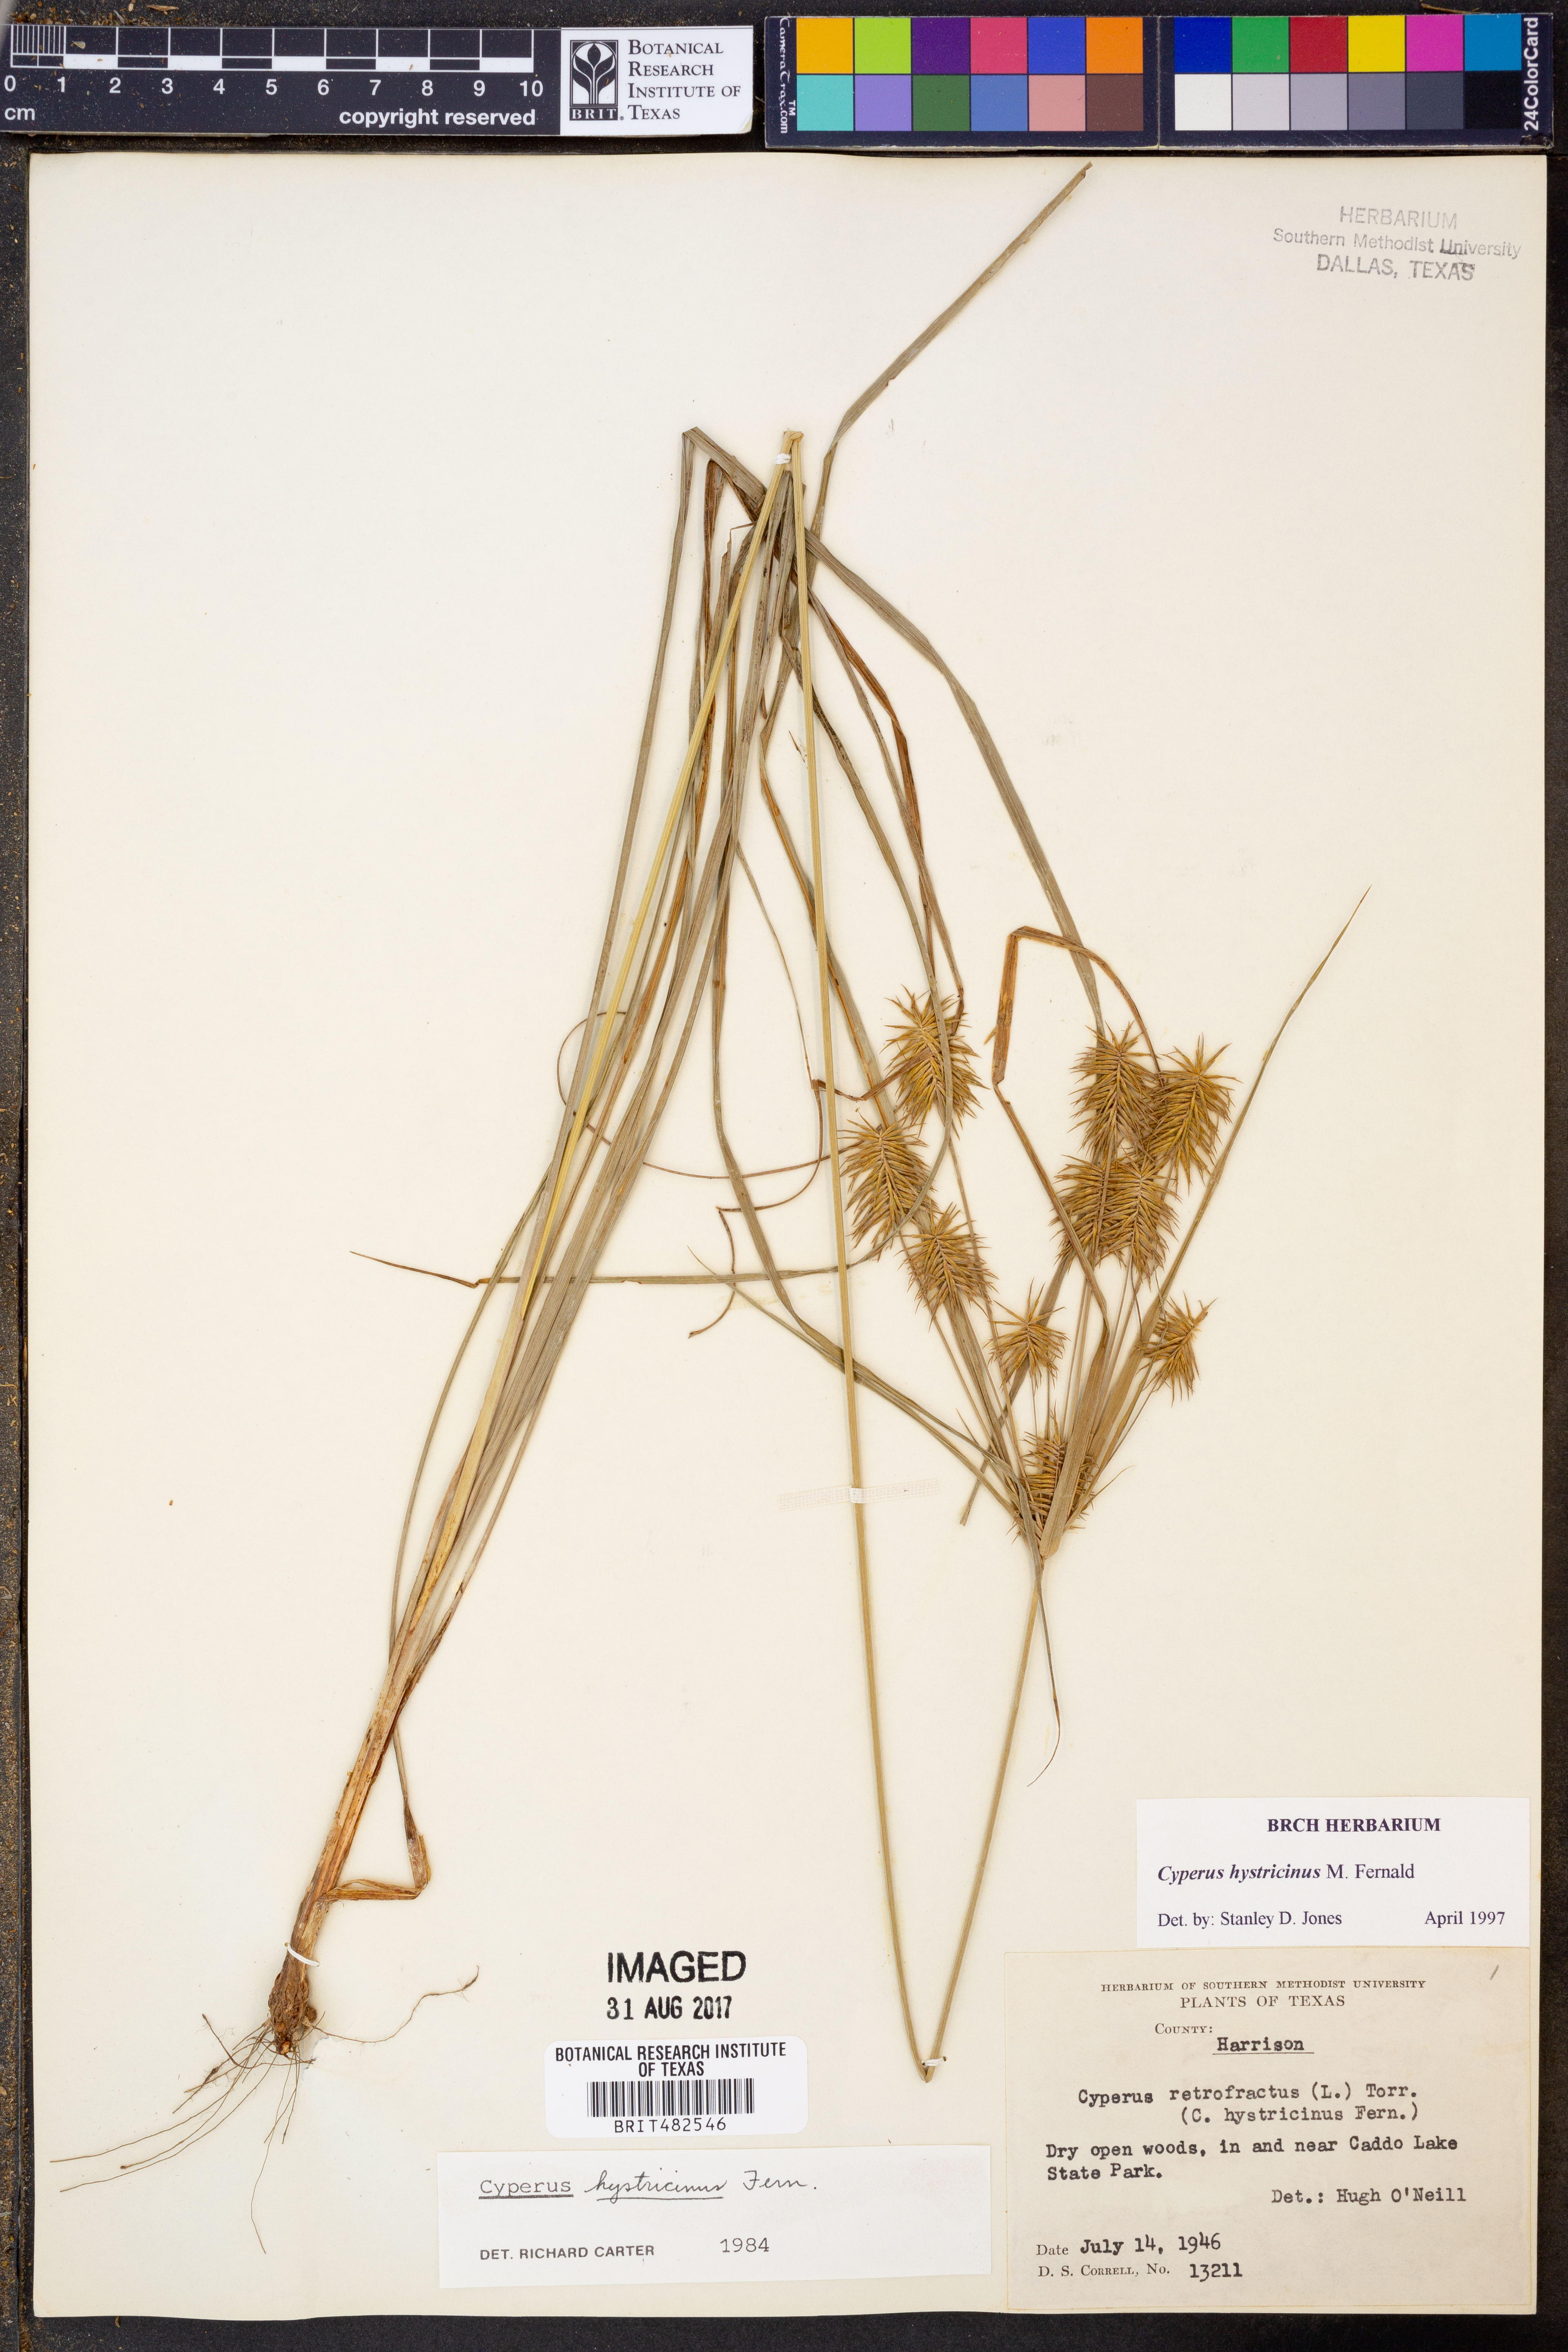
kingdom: Plantae
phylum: Tracheophyta
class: Liliopsida
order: Poales
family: Cyperaceae
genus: Cyperus
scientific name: Cyperus hystricinus
